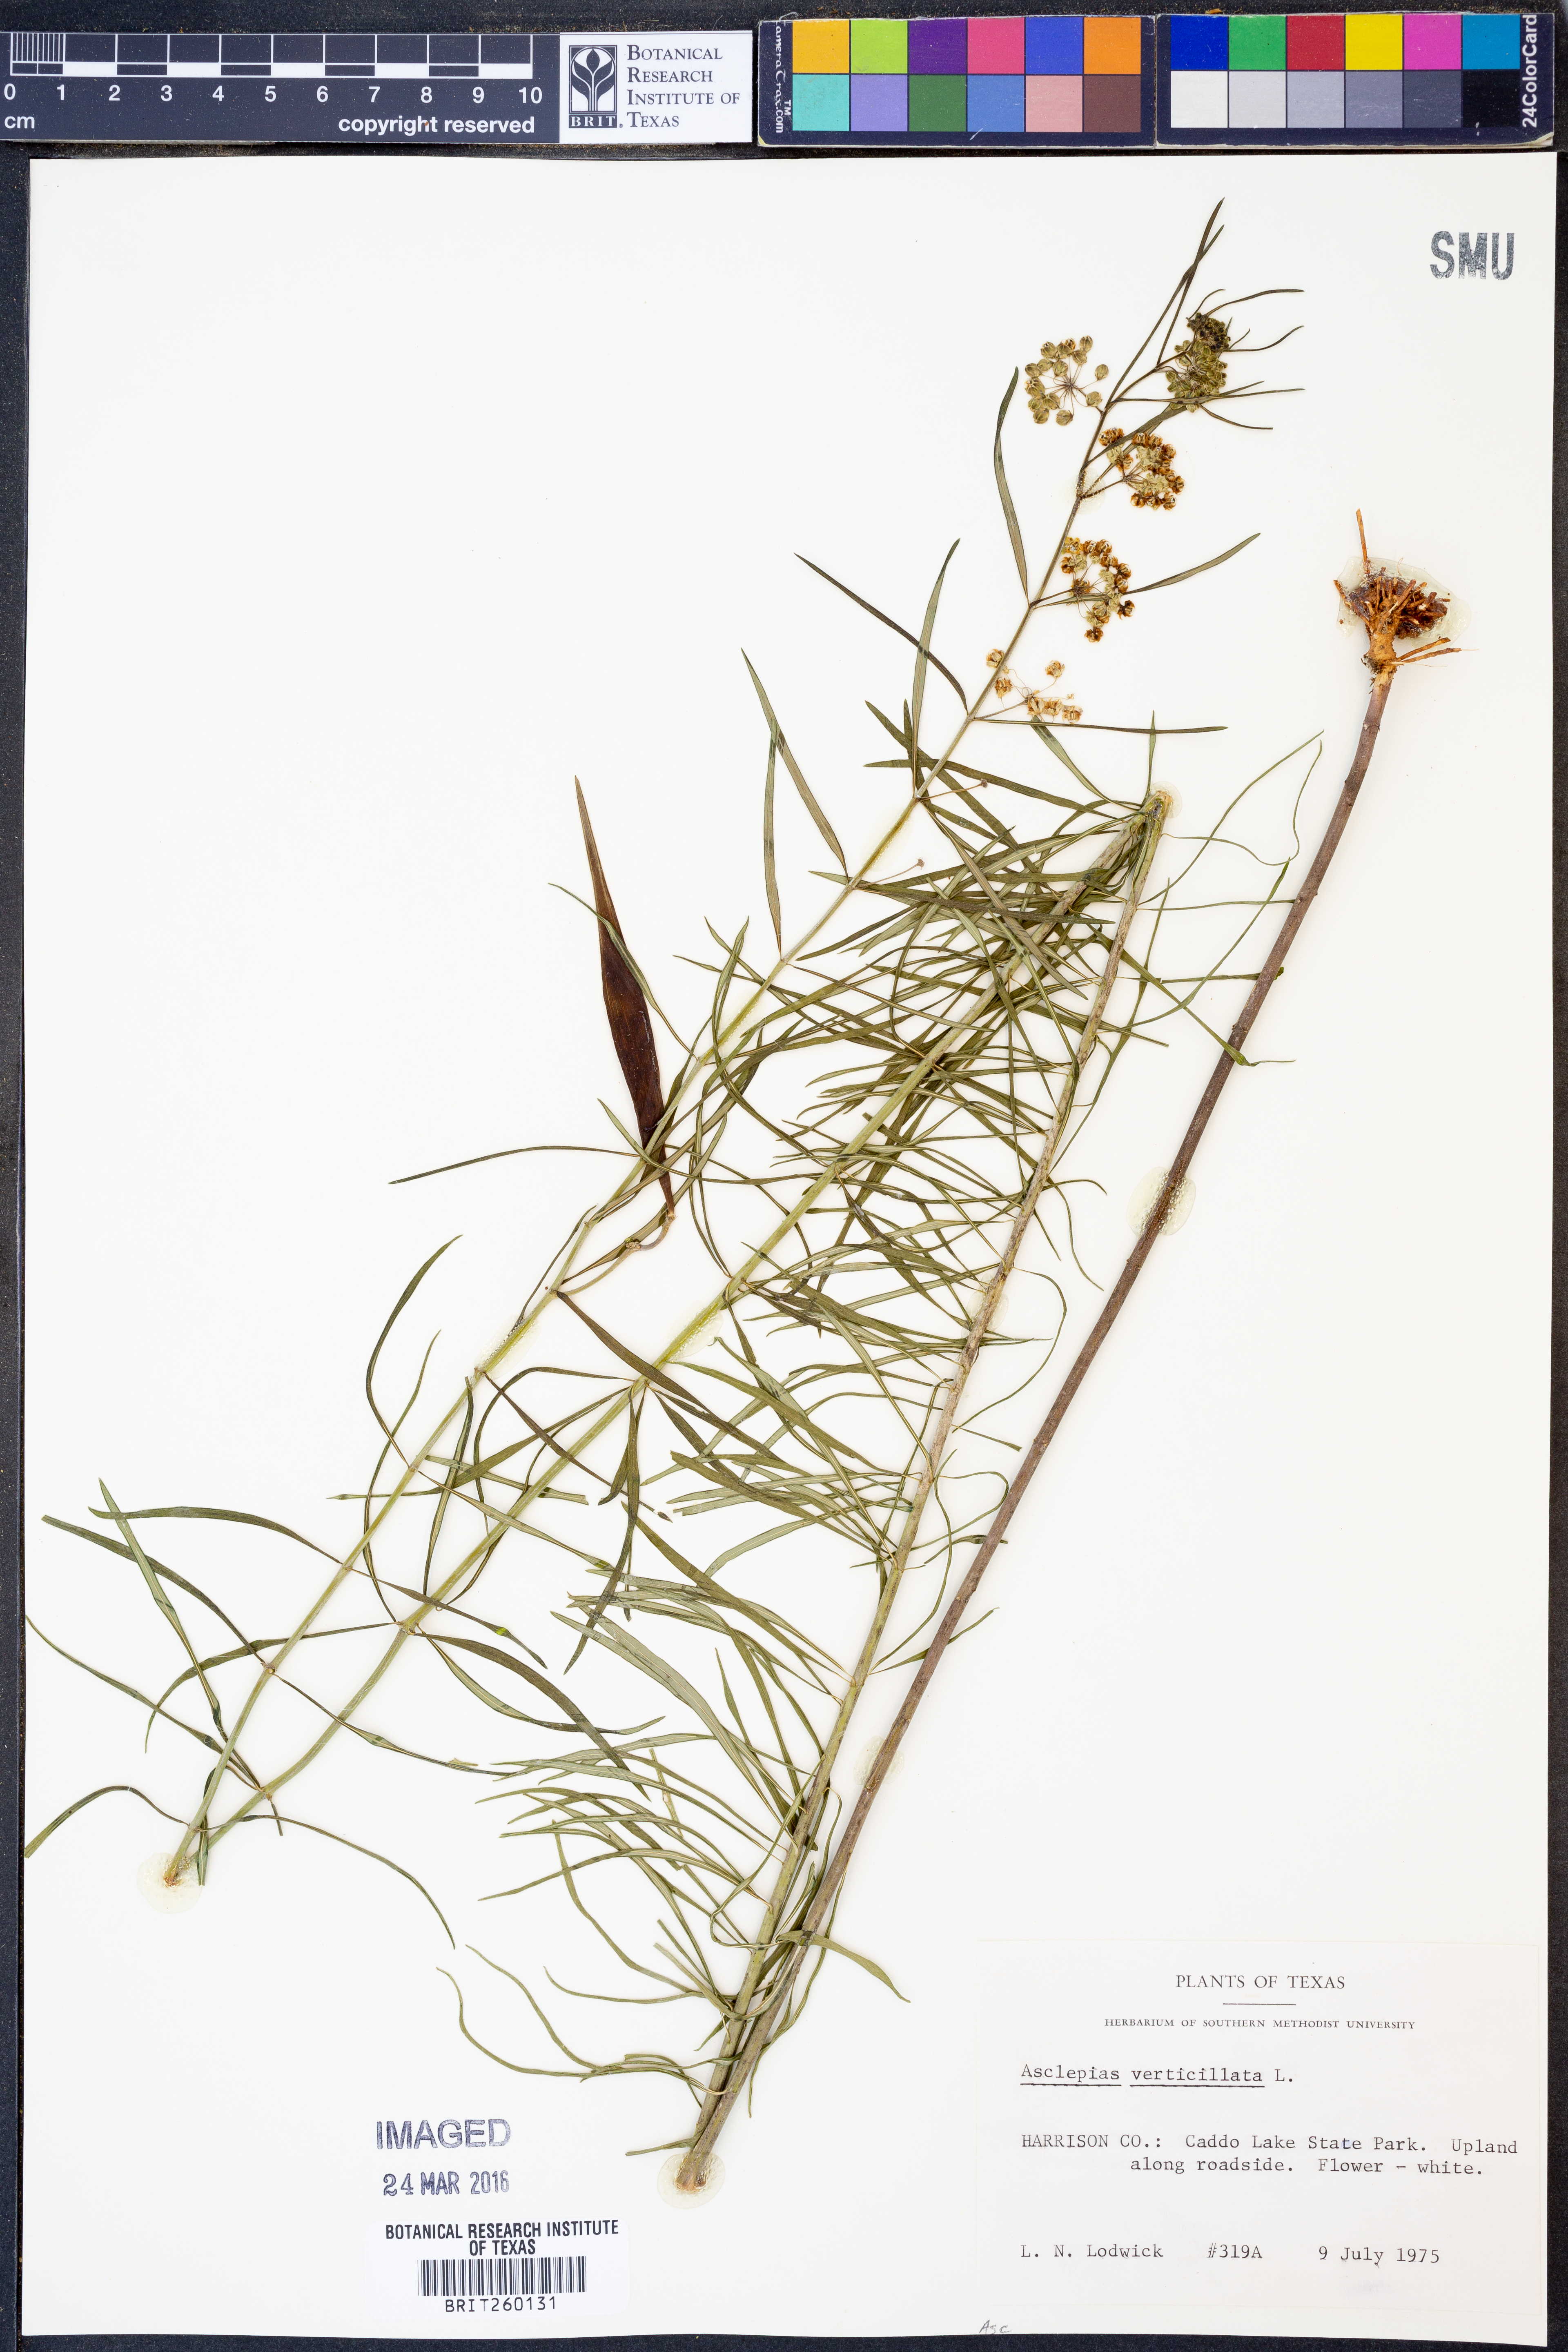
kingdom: Plantae
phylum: Tracheophyta
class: Magnoliopsida
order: Gentianales
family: Apocynaceae
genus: Asclepias
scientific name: Asclepias verticillata
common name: Eastern whorled milkweed
